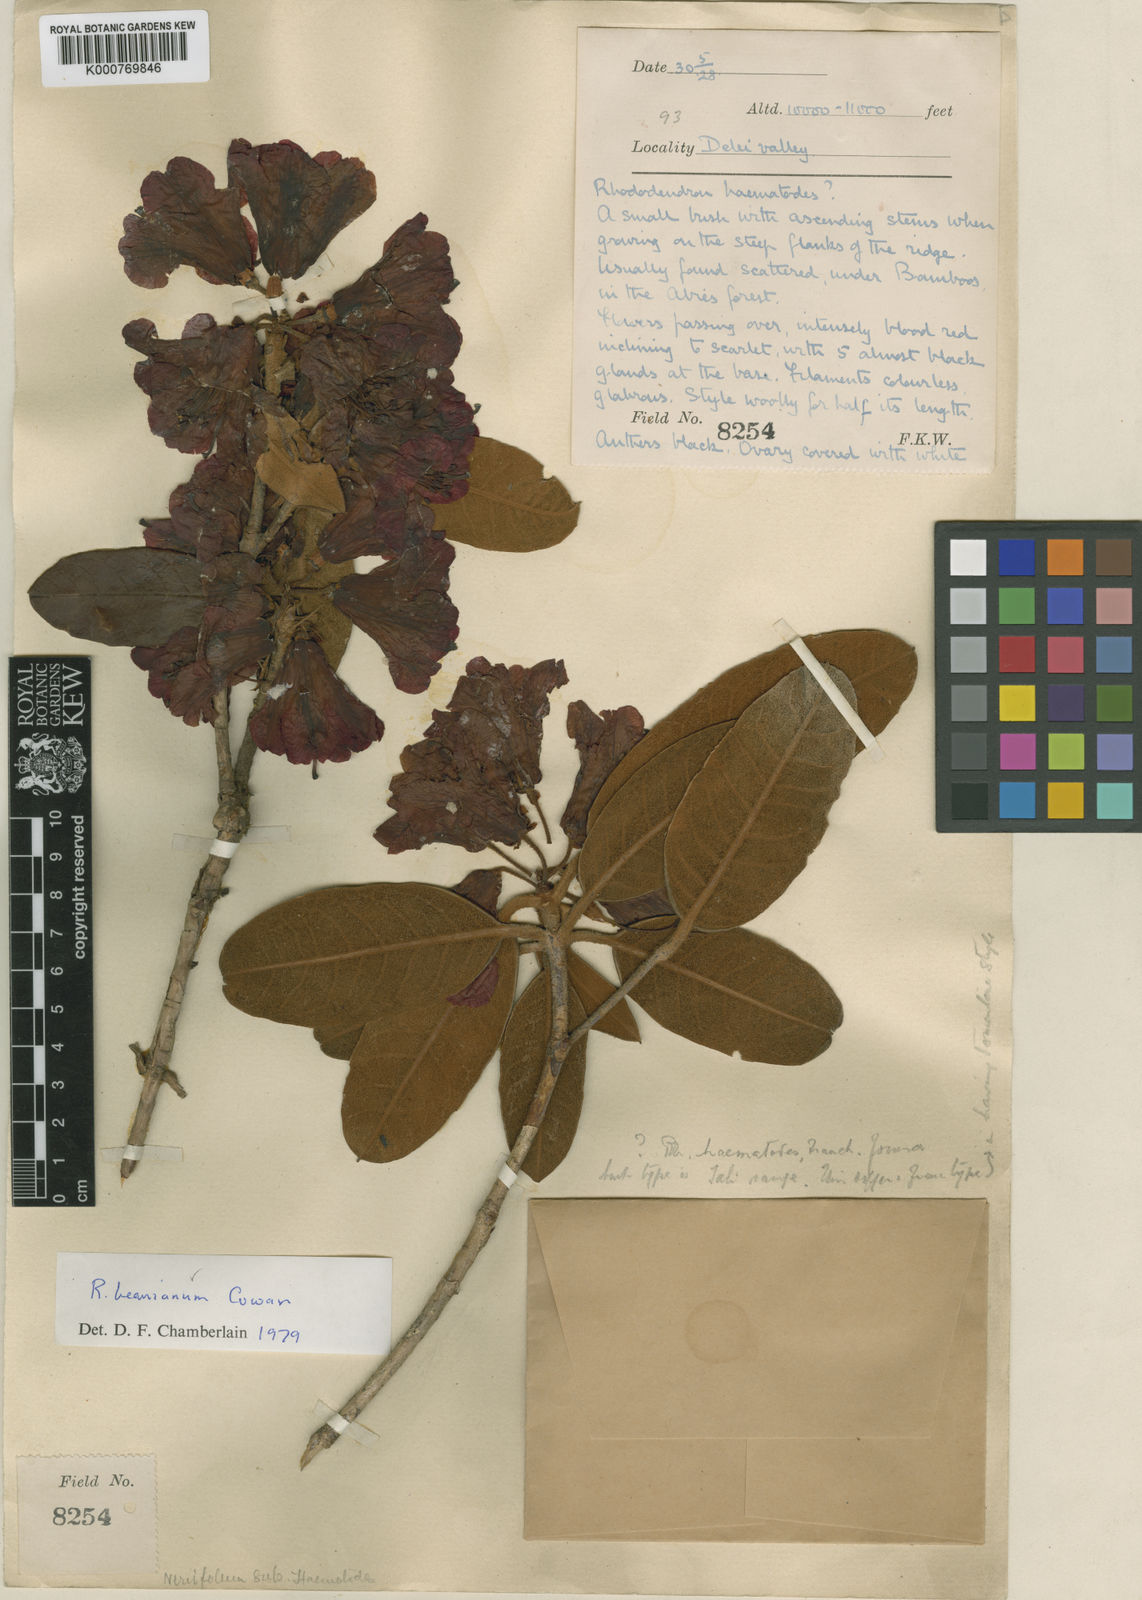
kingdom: Plantae
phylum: Tracheophyta
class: Magnoliopsida
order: Ericales
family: Ericaceae
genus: Rhododendron
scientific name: Rhododendron beanianum
